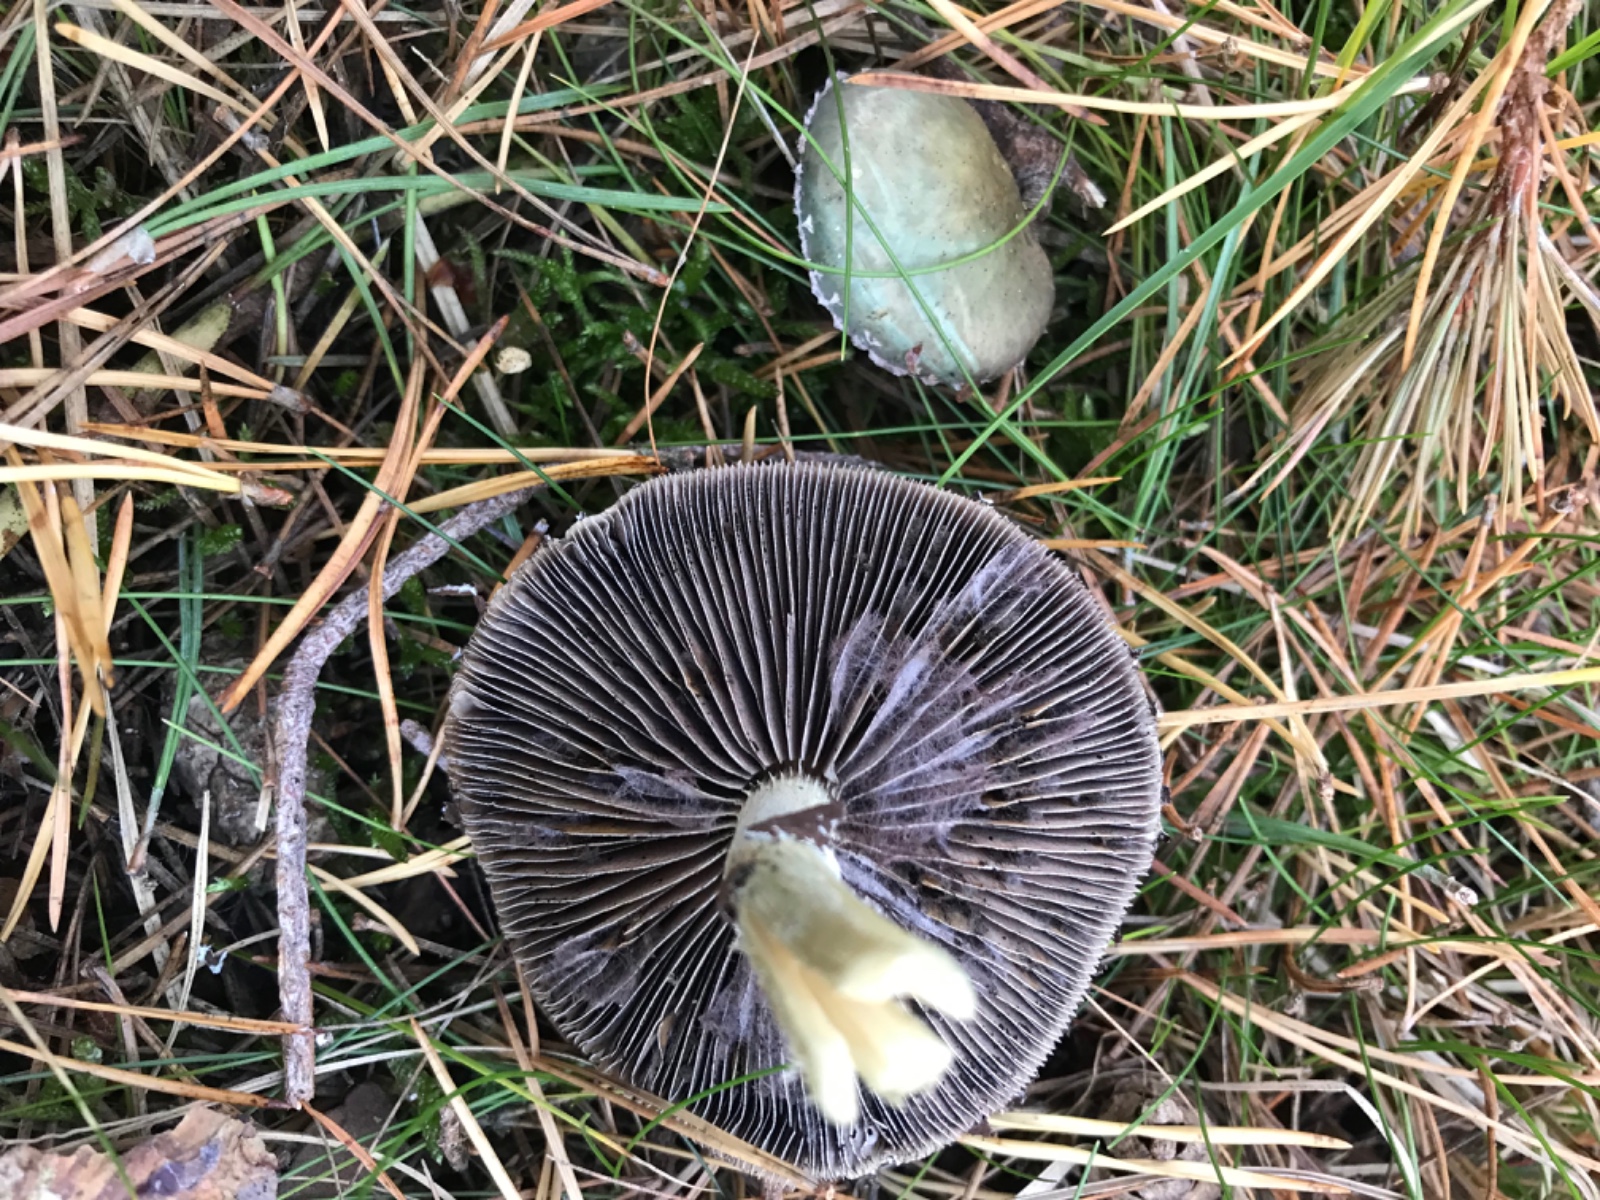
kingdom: Fungi
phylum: Basidiomycota
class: Agaricomycetes
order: Agaricales
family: Strophariaceae
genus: Stropharia
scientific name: Stropharia aeruginosa
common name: spanskgrøn bredblad
